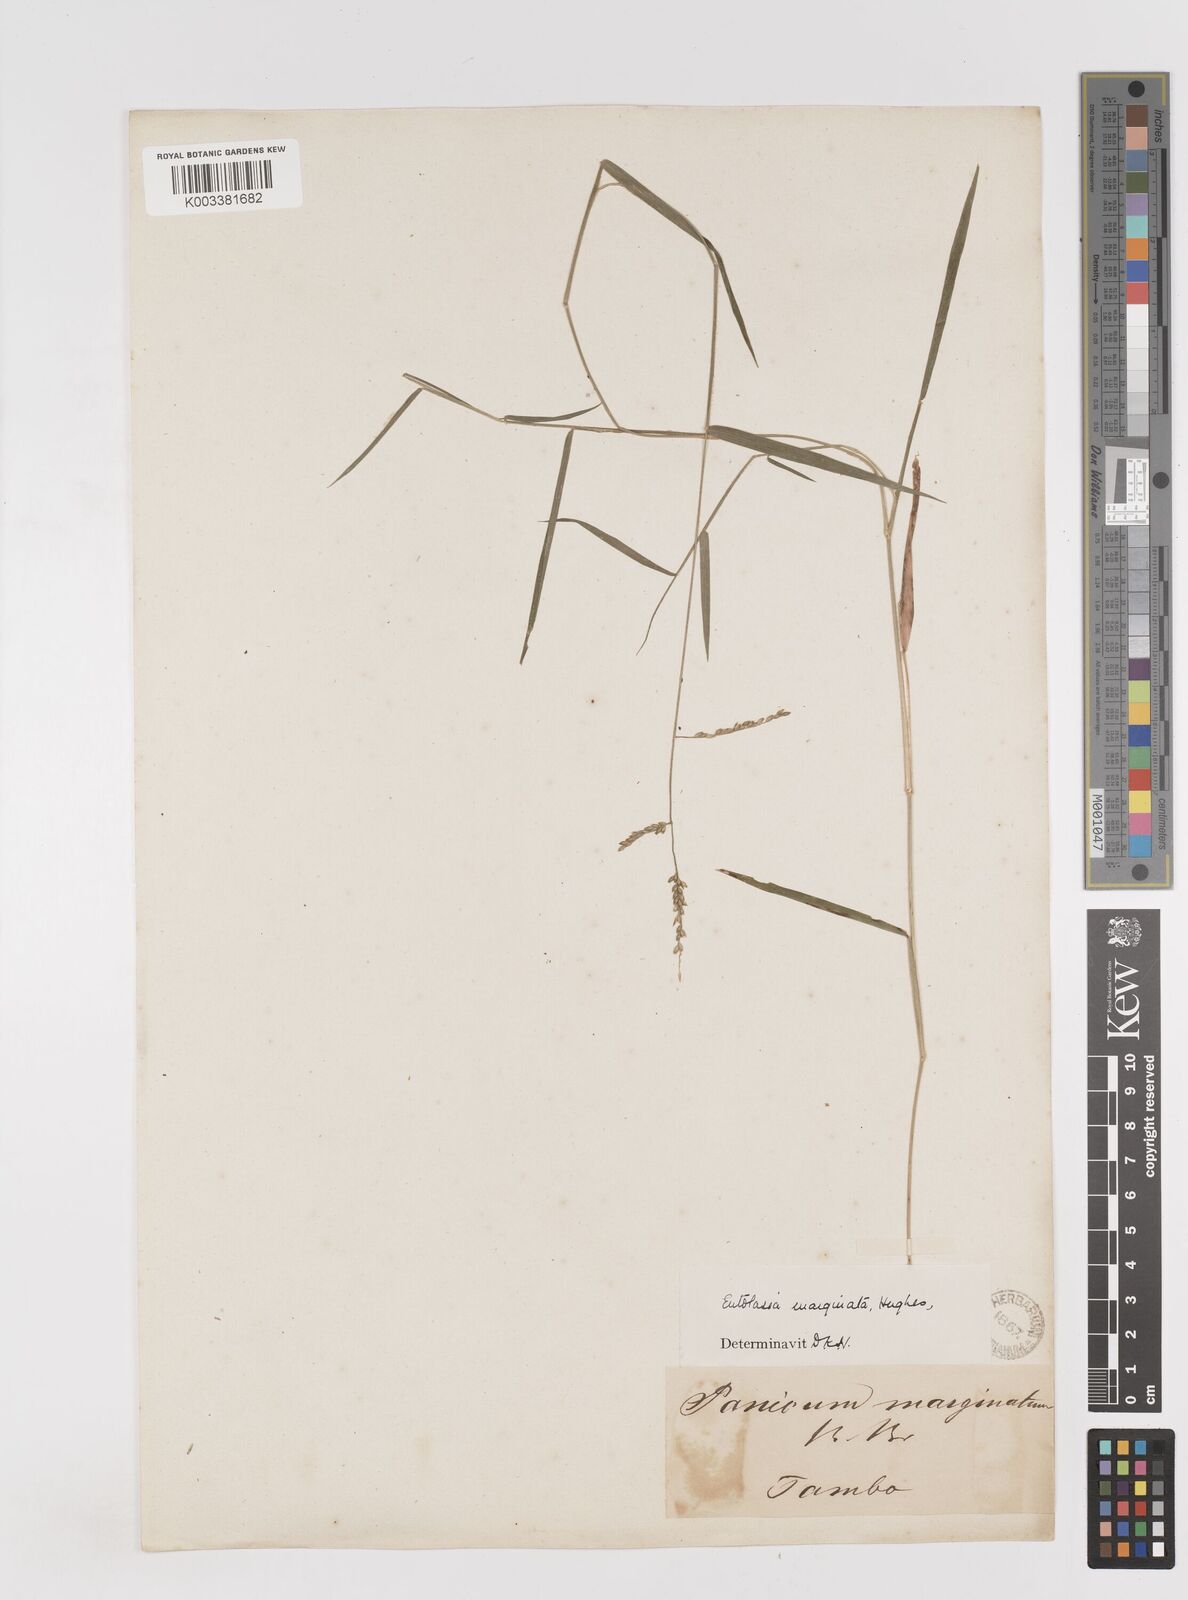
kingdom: Plantae
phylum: Tracheophyta
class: Liliopsida
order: Poales
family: Poaceae
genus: Entolasia
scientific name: Entolasia marginata
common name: Australian panicgrass
